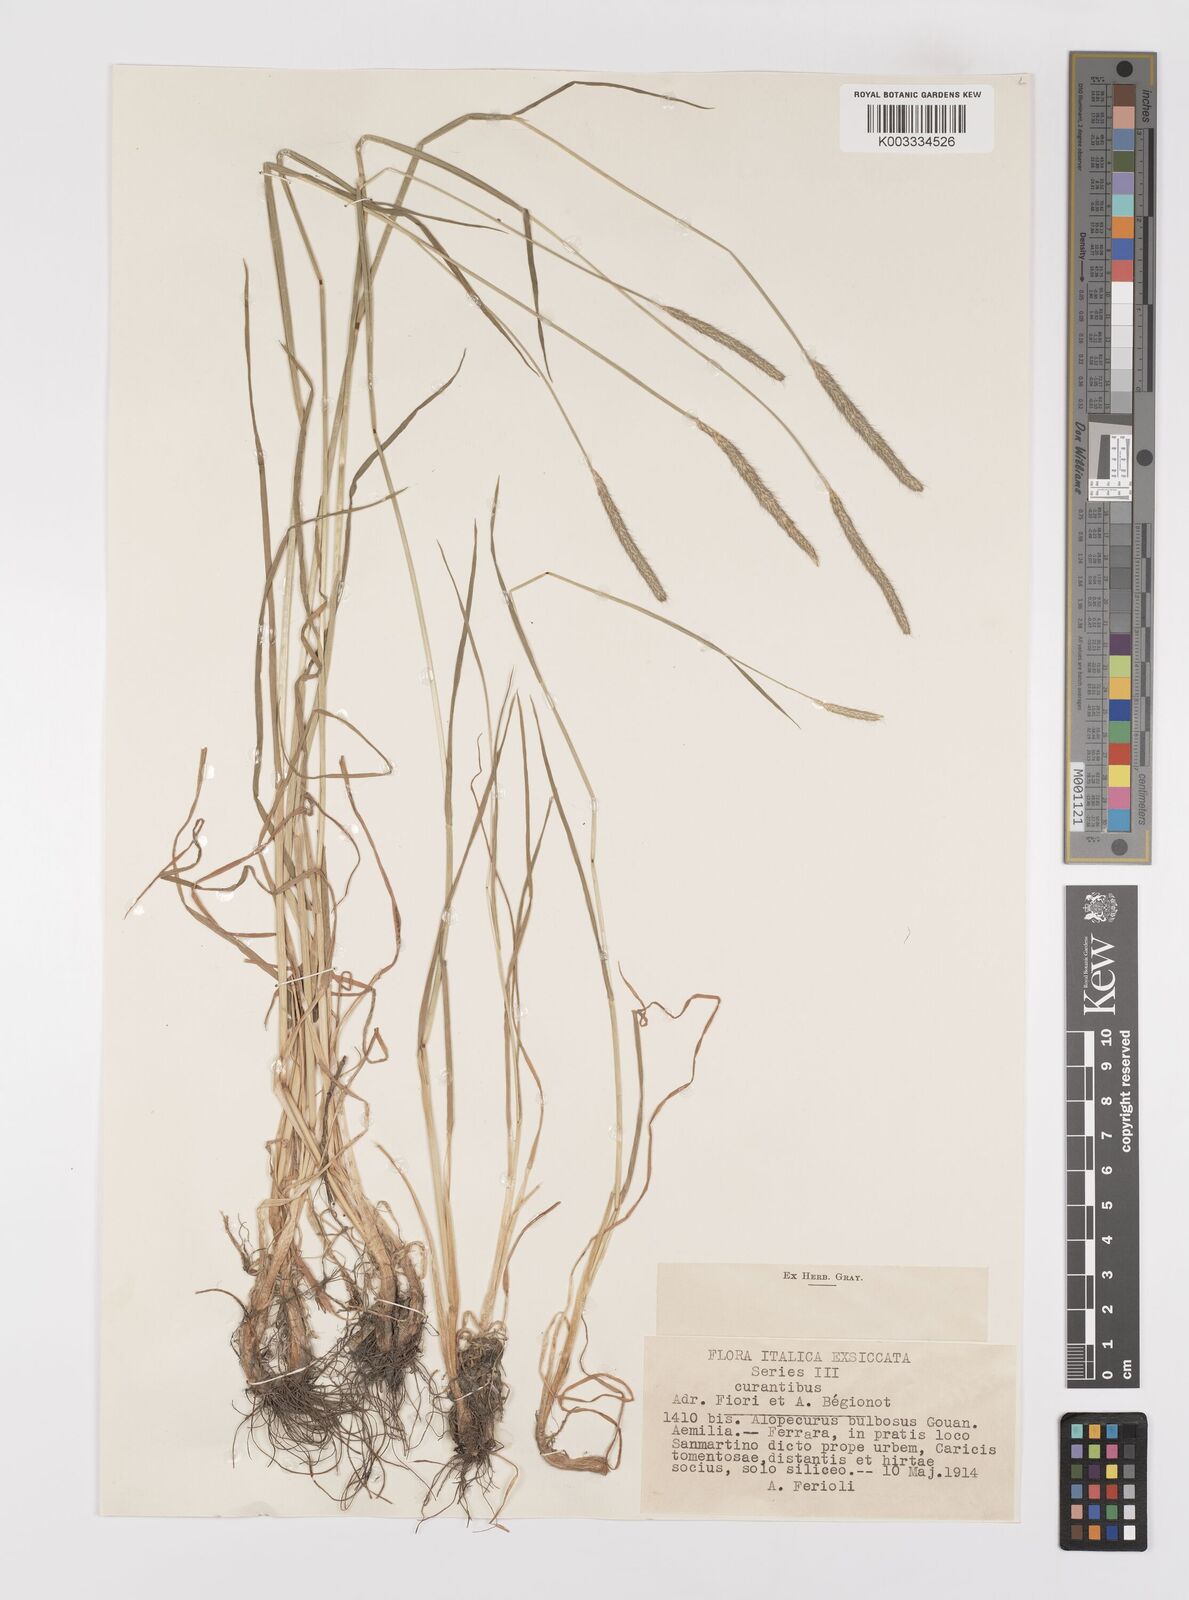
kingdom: Plantae
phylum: Tracheophyta
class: Liliopsida
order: Poales
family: Poaceae
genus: Alopecurus
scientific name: Alopecurus bulbosus
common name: Bulbous foxtail
